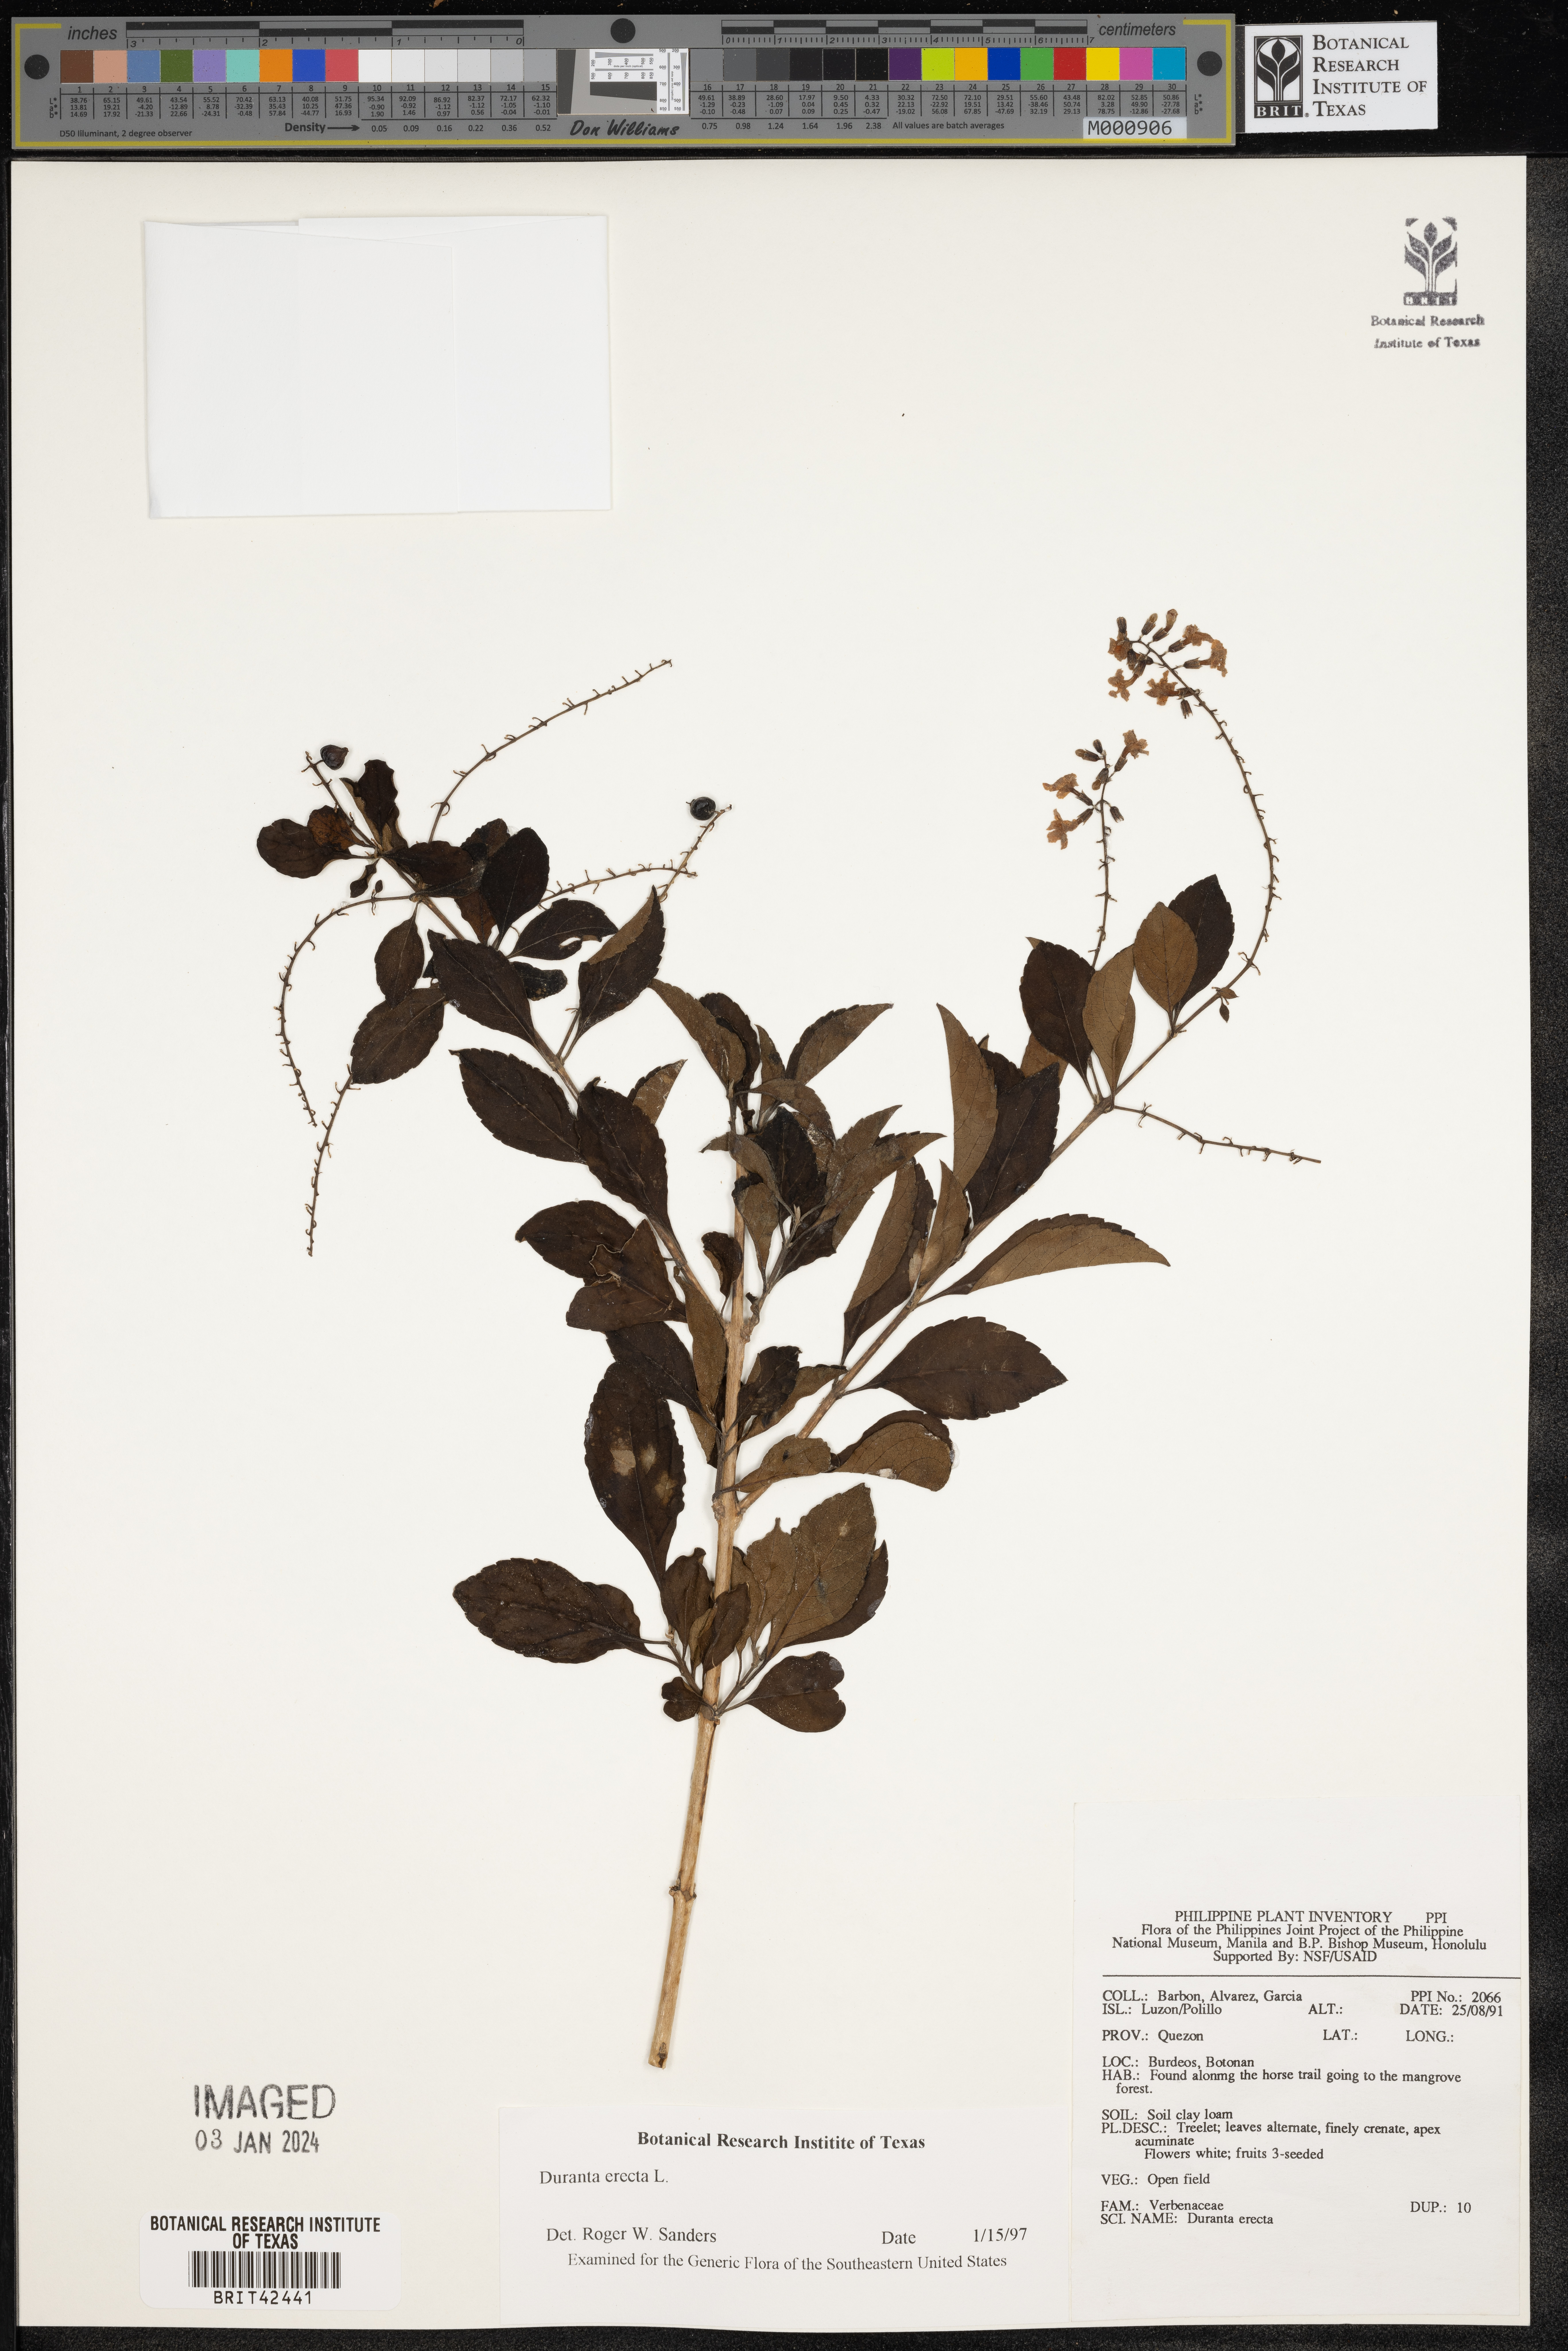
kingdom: Plantae
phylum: Tracheophyta
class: Magnoliopsida
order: Lamiales
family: Verbenaceae
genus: Duranta
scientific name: Duranta erecta
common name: Golden dewdrops
